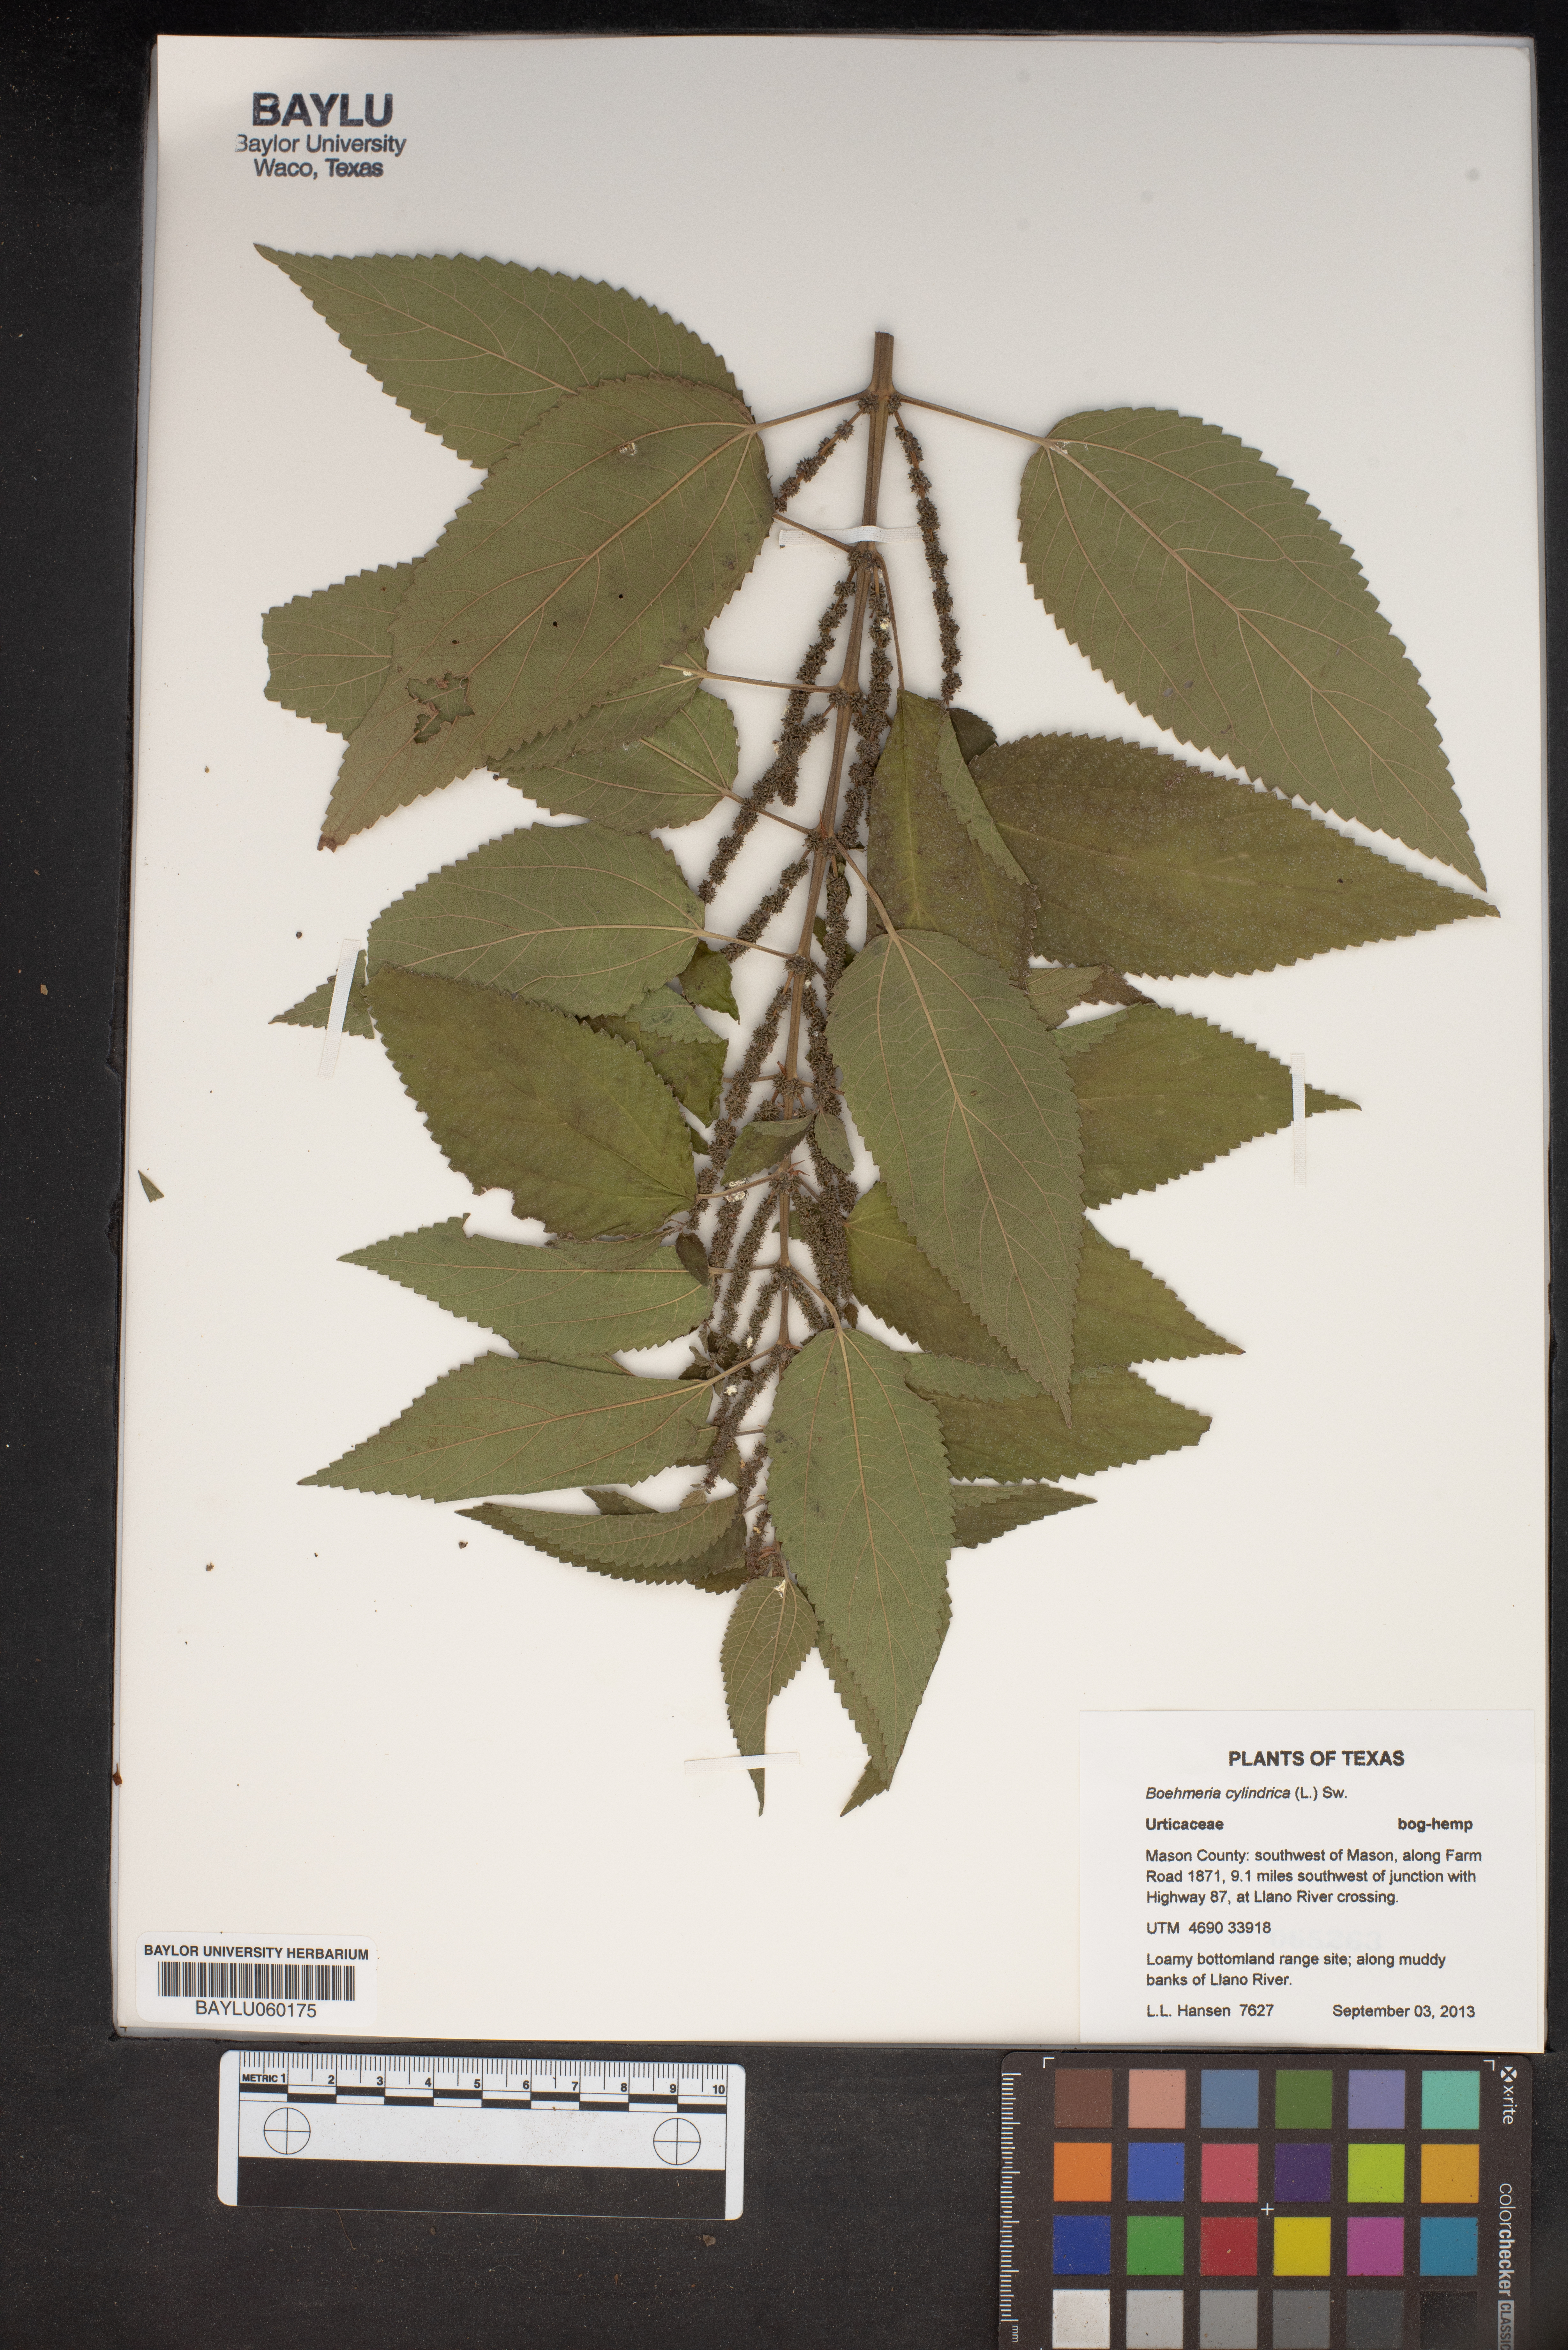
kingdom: Plantae
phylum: Tracheophyta
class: Magnoliopsida
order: Rosales
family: Urticaceae
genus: Boehmeria
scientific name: Boehmeria cylindrica
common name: Bog-hemp
